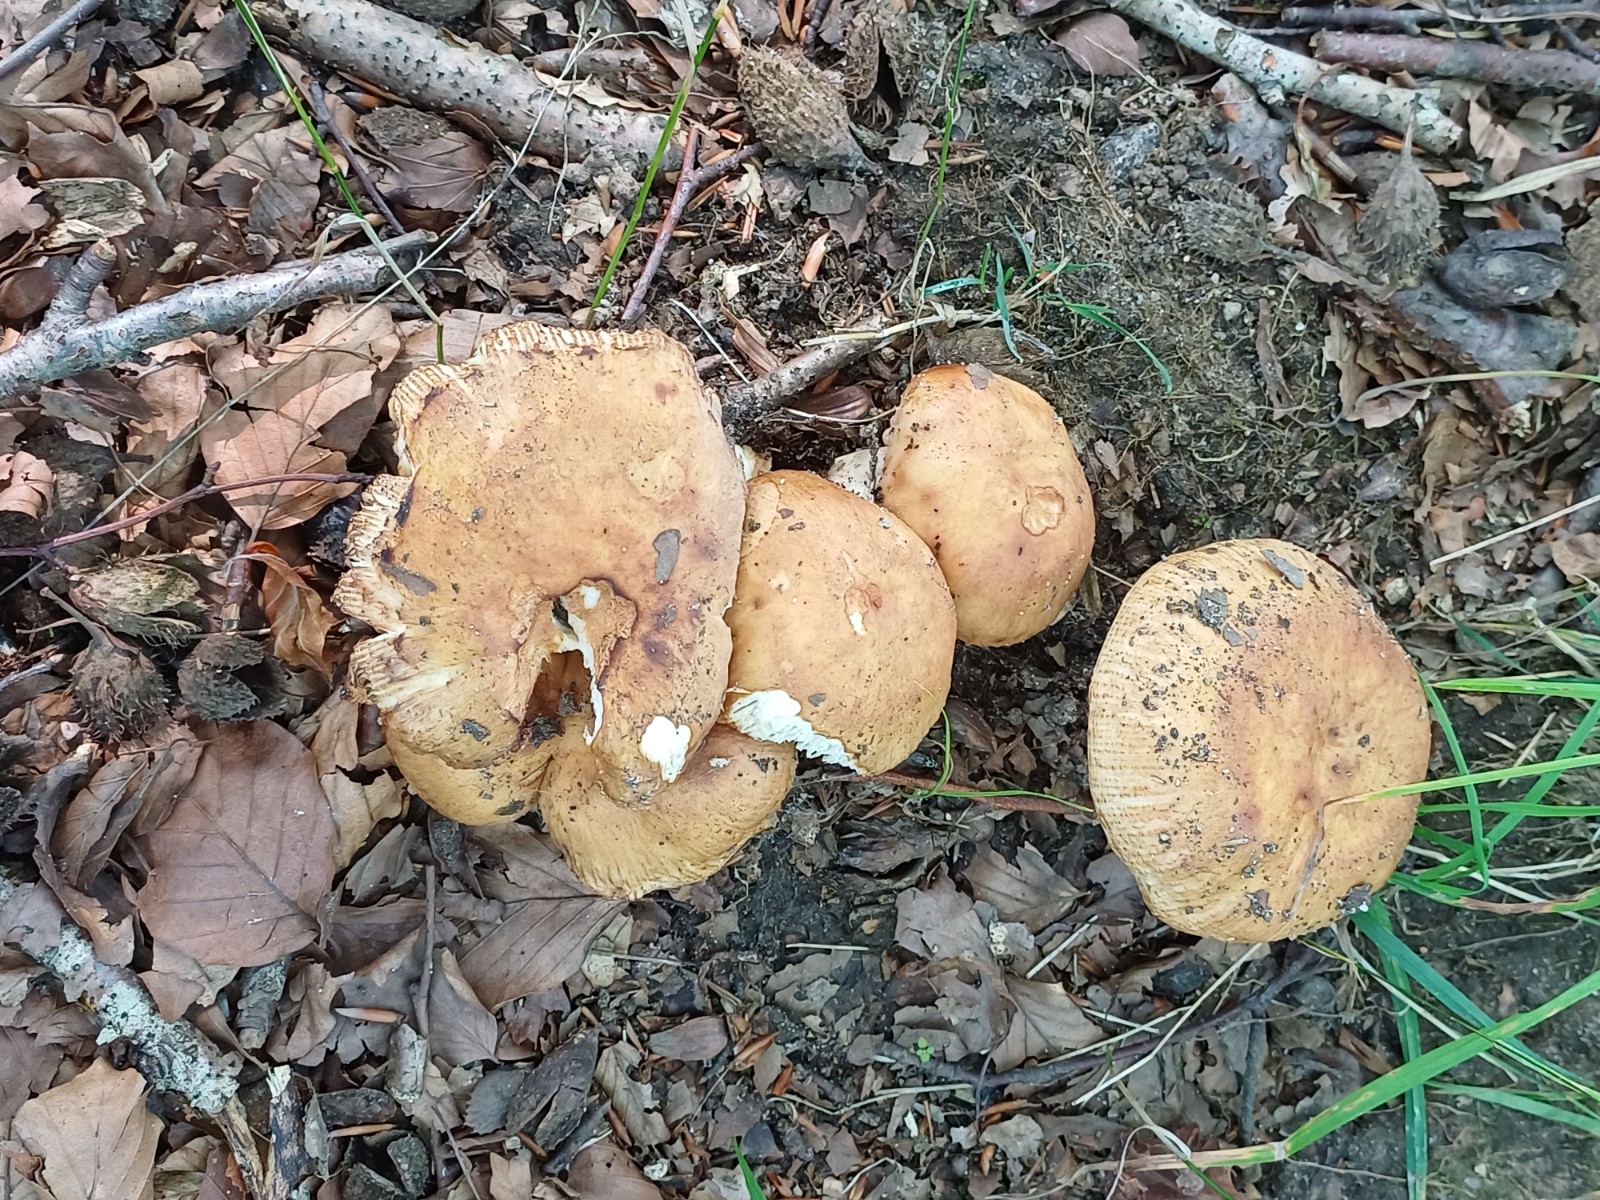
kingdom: Fungi
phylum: Basidiomycota
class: Agaricomycetes
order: Russulales
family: Russulaceae
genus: Russula
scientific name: Russula
